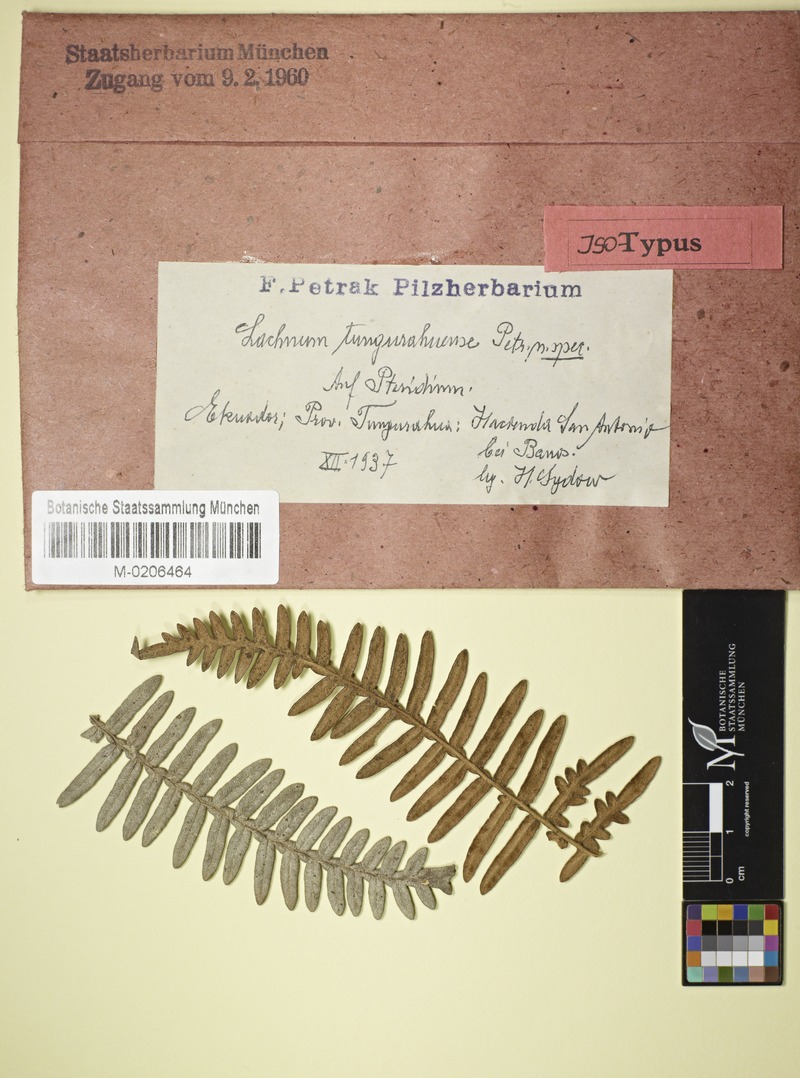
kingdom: Fungi
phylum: Ascomycota
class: Leotiomycetes
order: Helotiales
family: Lachnaceae
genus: Lachnum
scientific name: Lachnum tungurahuense
